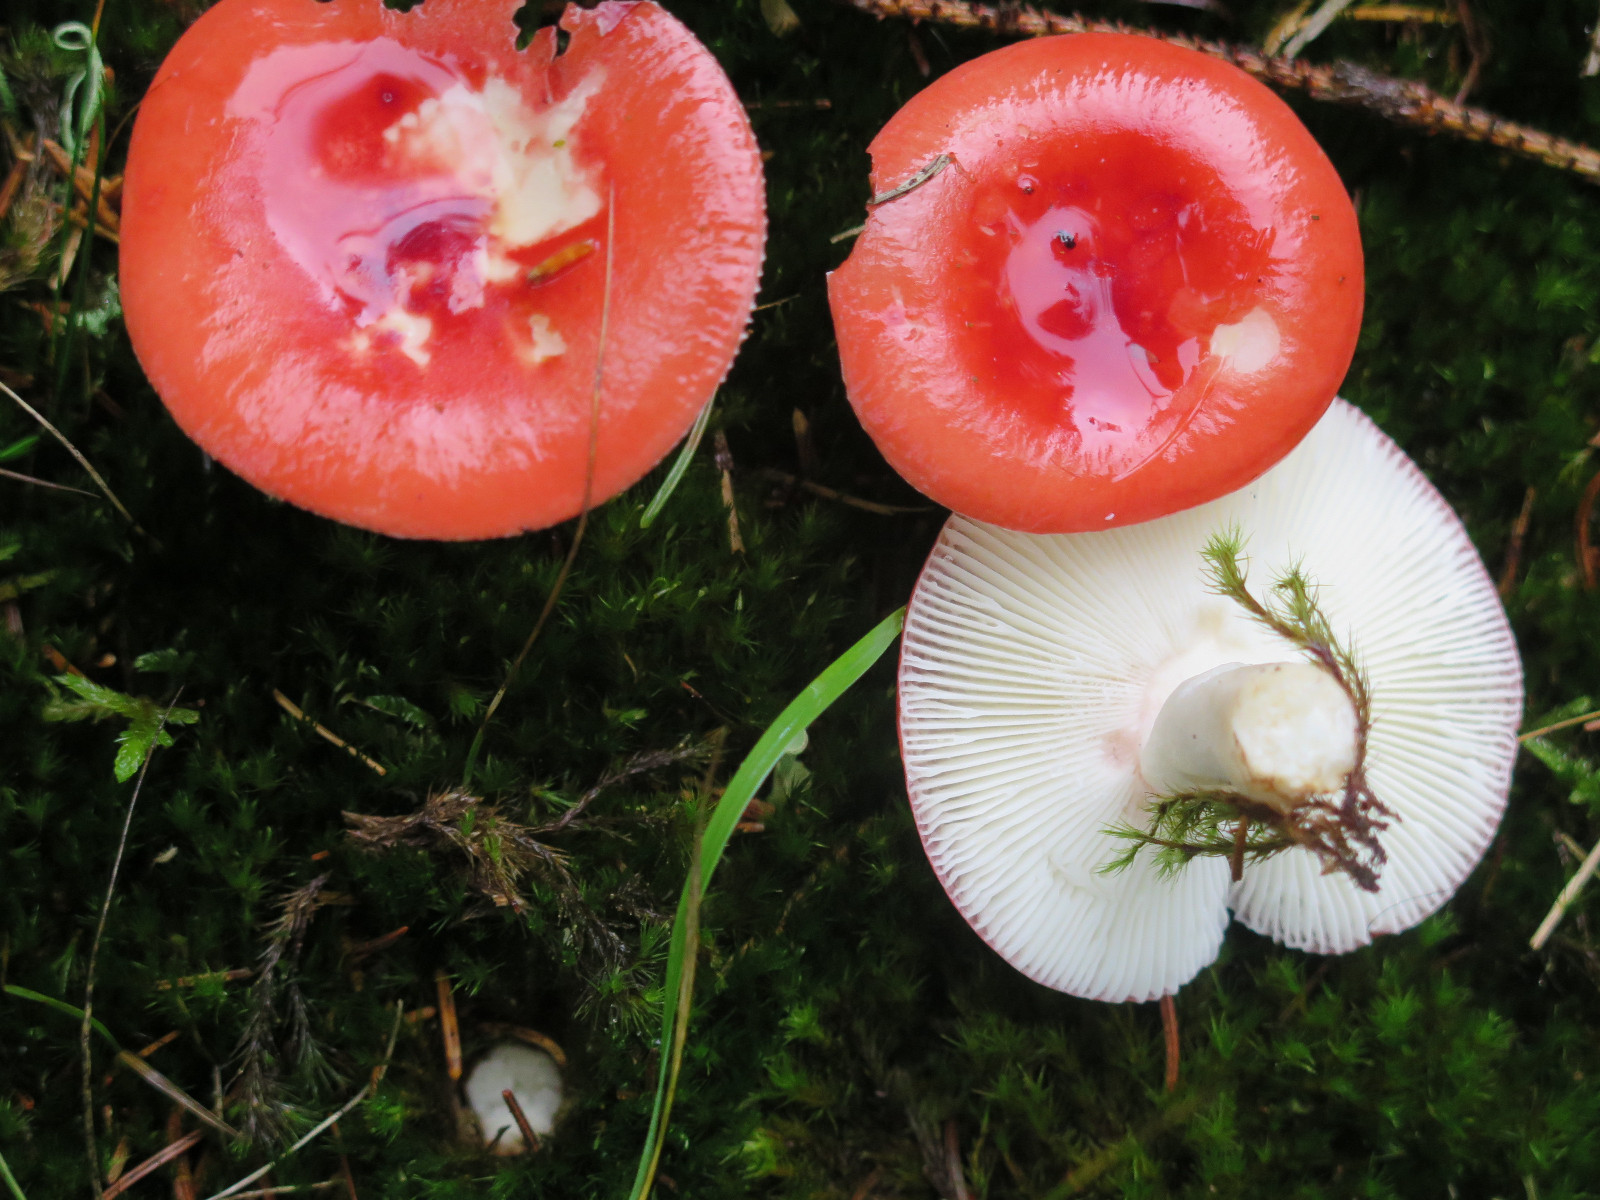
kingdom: Fungi
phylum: Basidiomycota
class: Agaricomycetes
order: Russulales
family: Russulaceae
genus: Russula
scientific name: Russula emetica
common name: stor gift-skørhat
